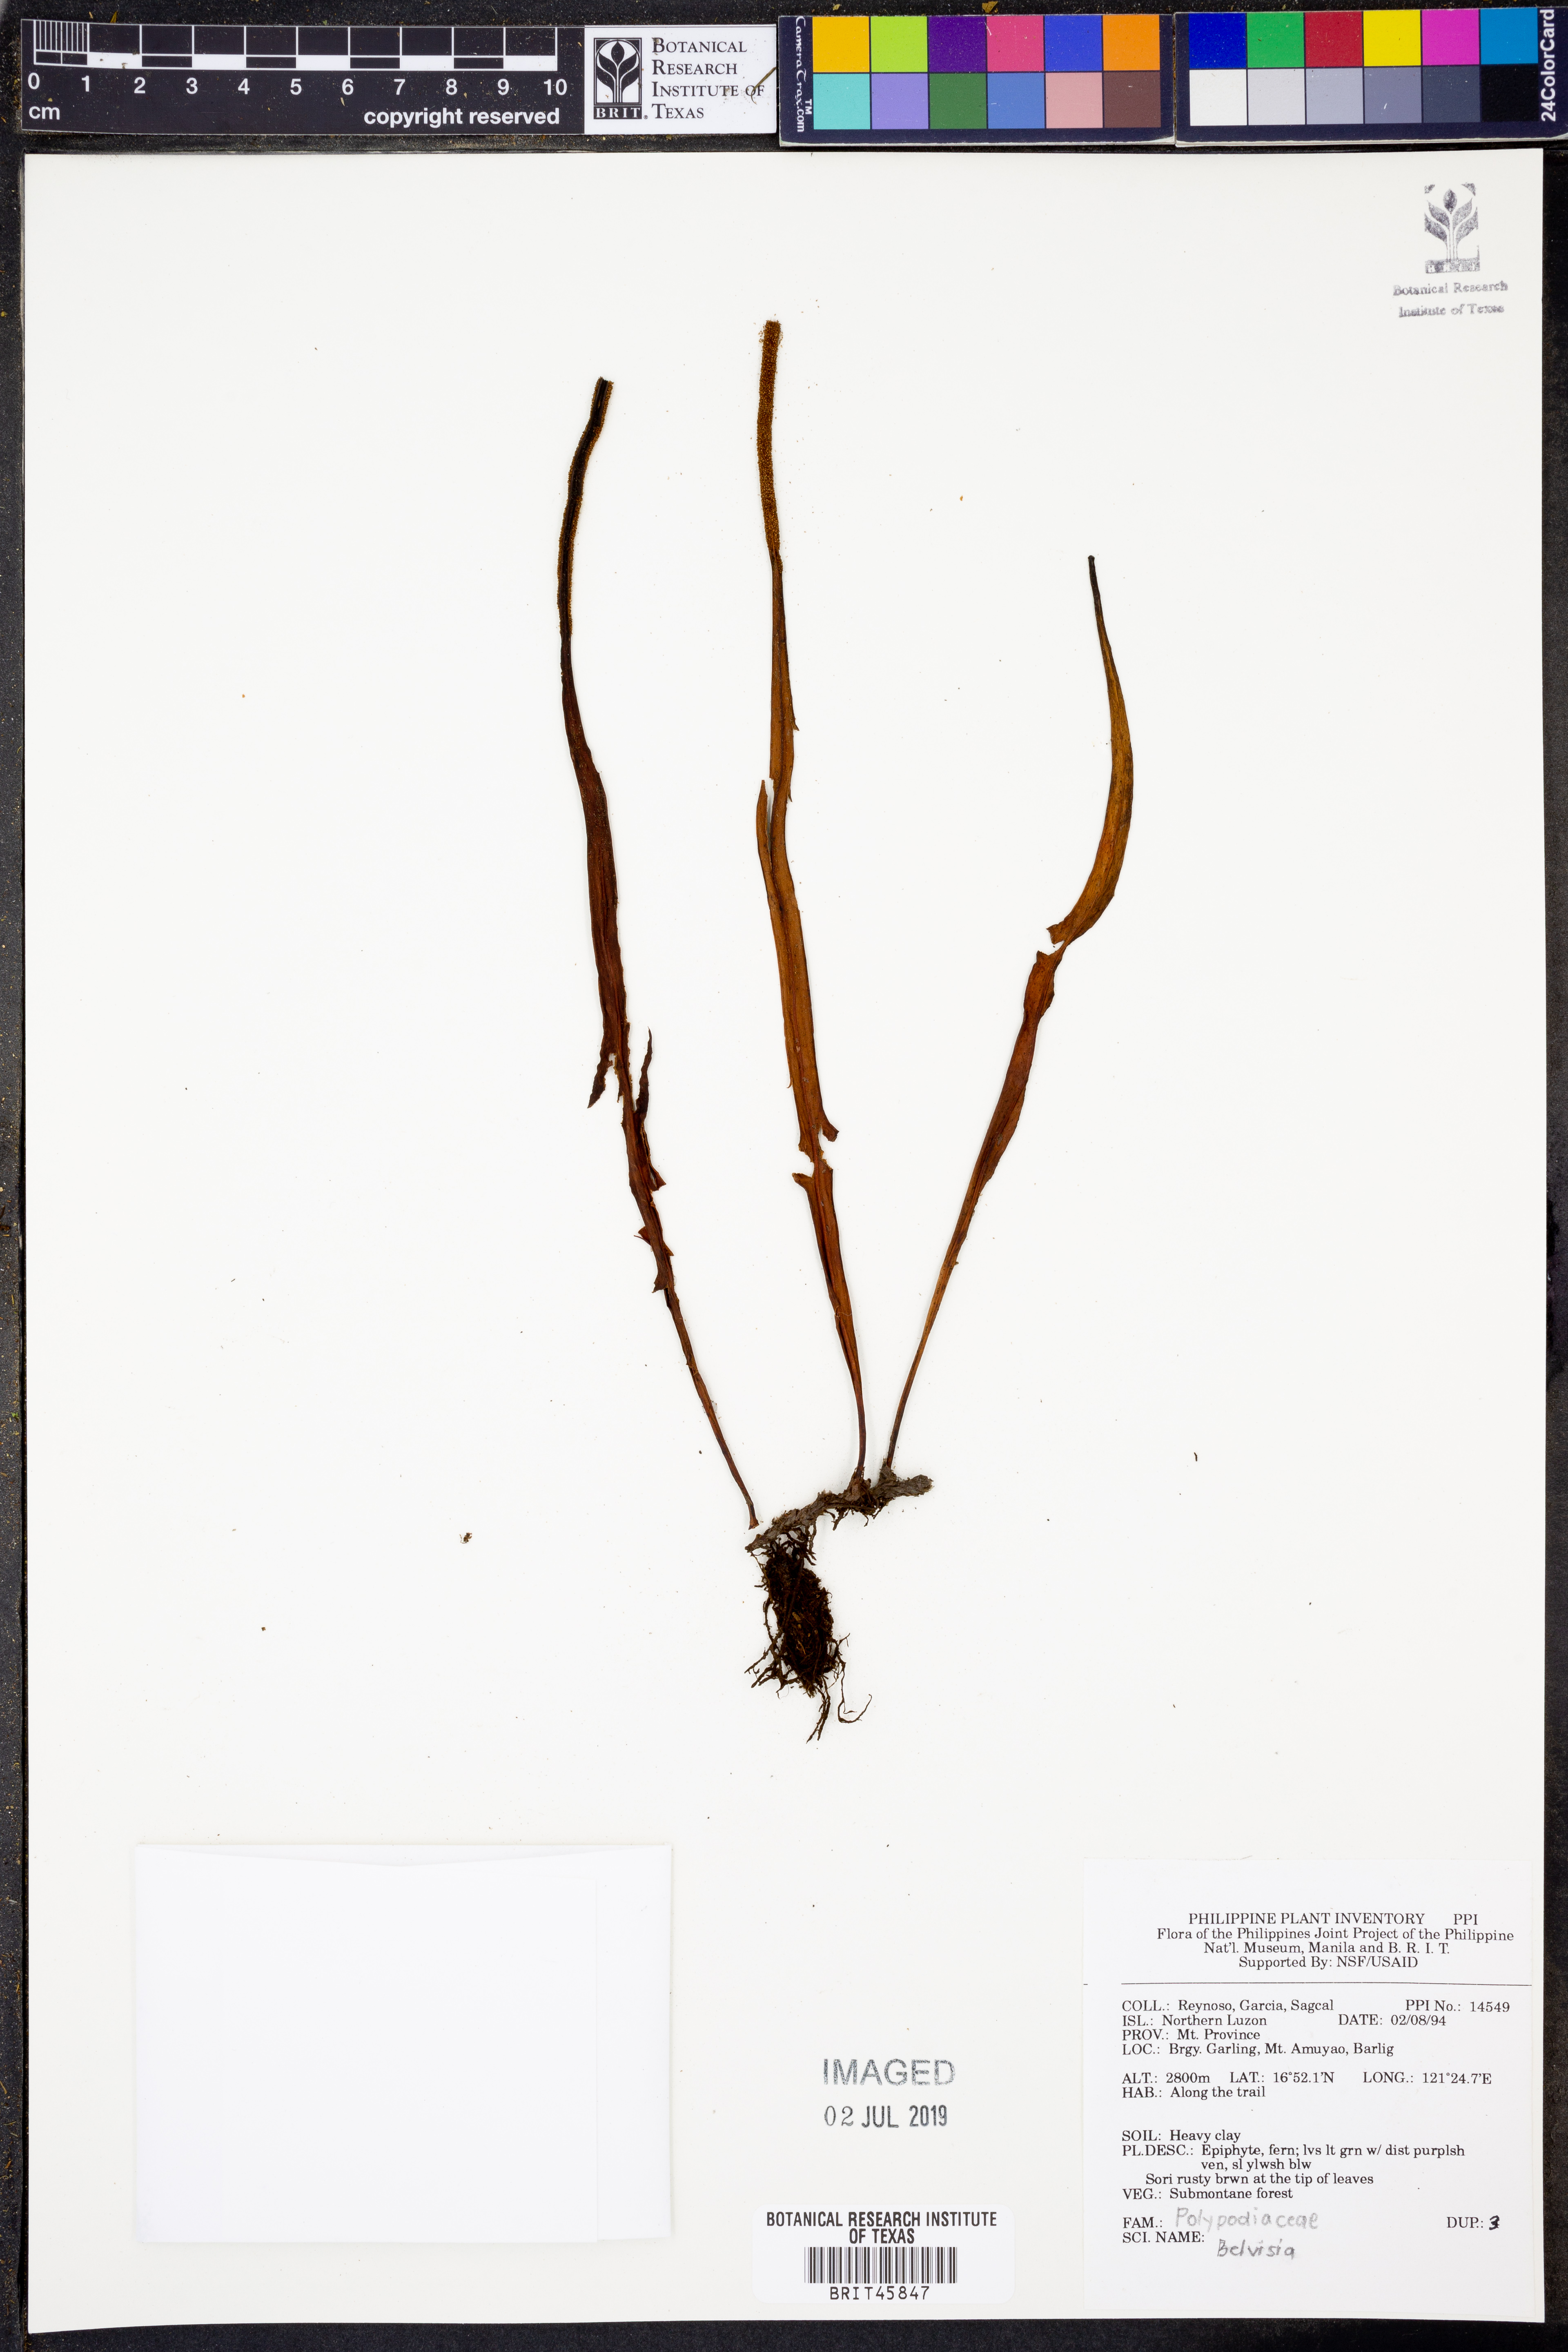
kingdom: Plantae
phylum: Tracheophyta
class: Polypodiopsida
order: Polypodiales
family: Polypodiaceae
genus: Lepisorus
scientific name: Lepisorus
